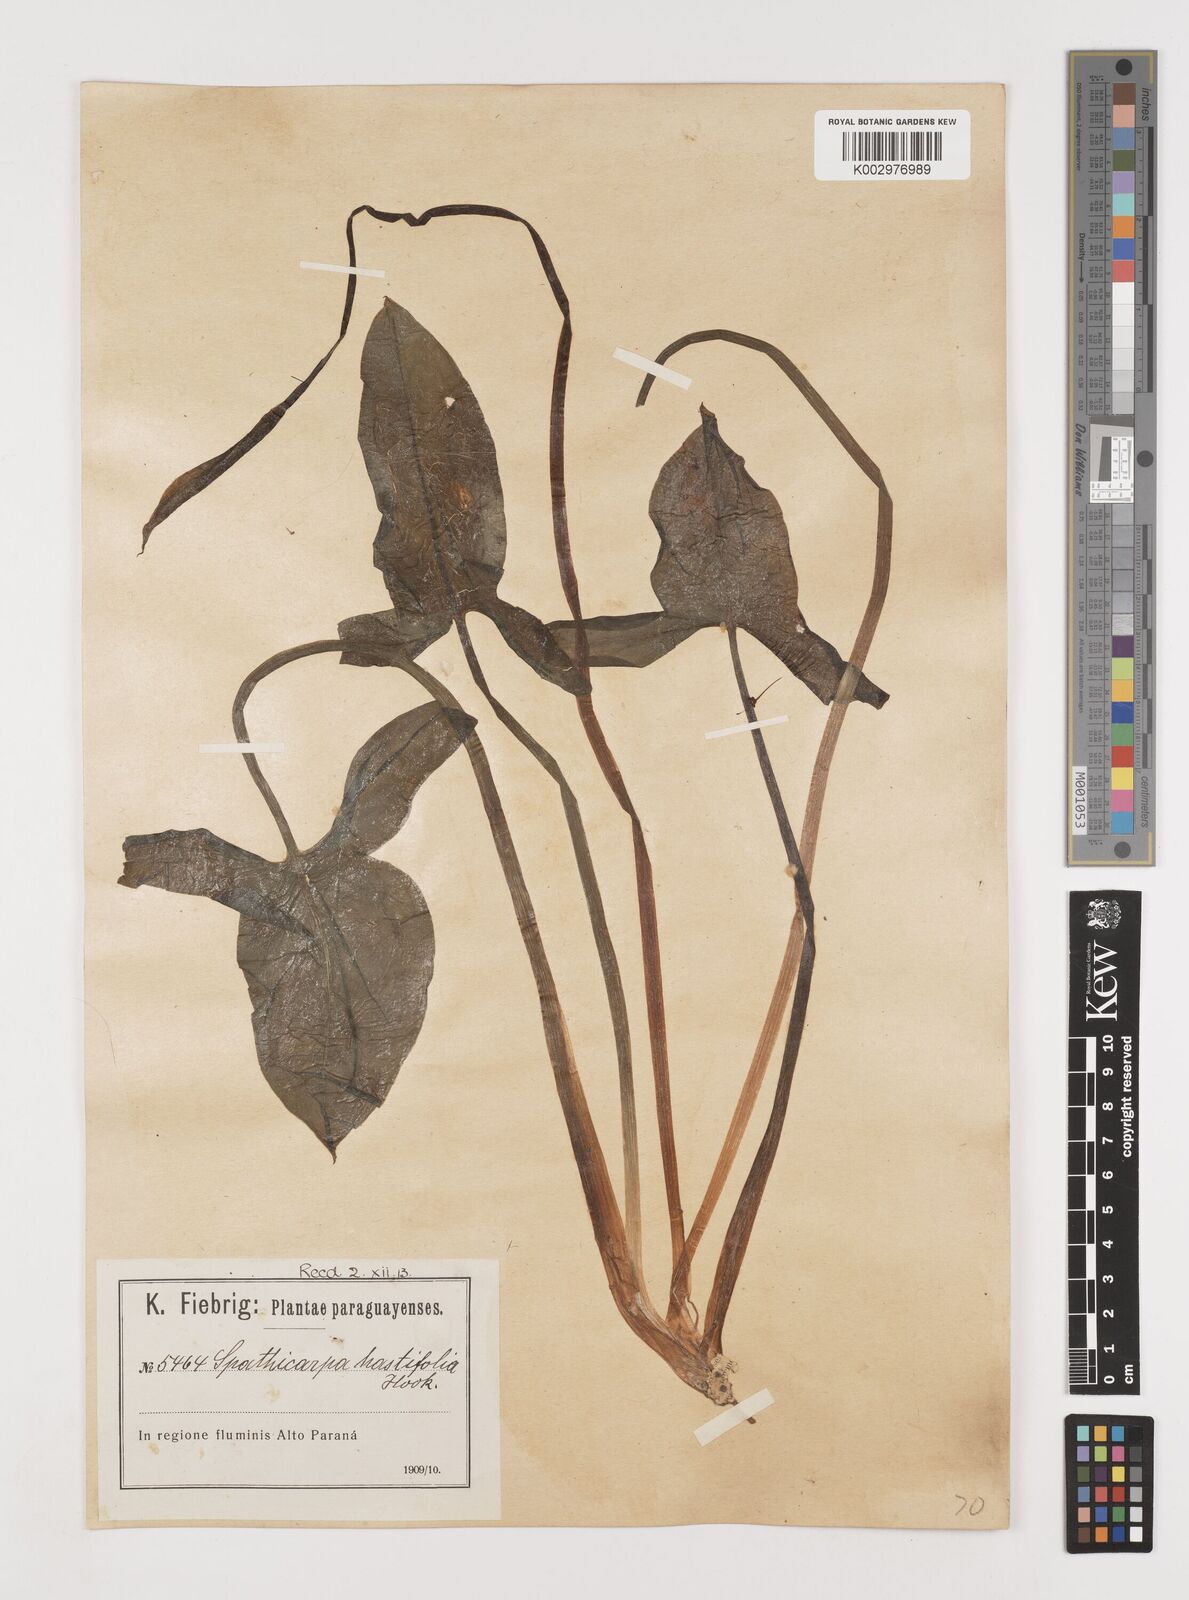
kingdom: Plantae
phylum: Tracheophyta
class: Liliopsida
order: Alismatales
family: Araceae
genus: Spathicarpa
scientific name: Spathicarpa hastifolia
